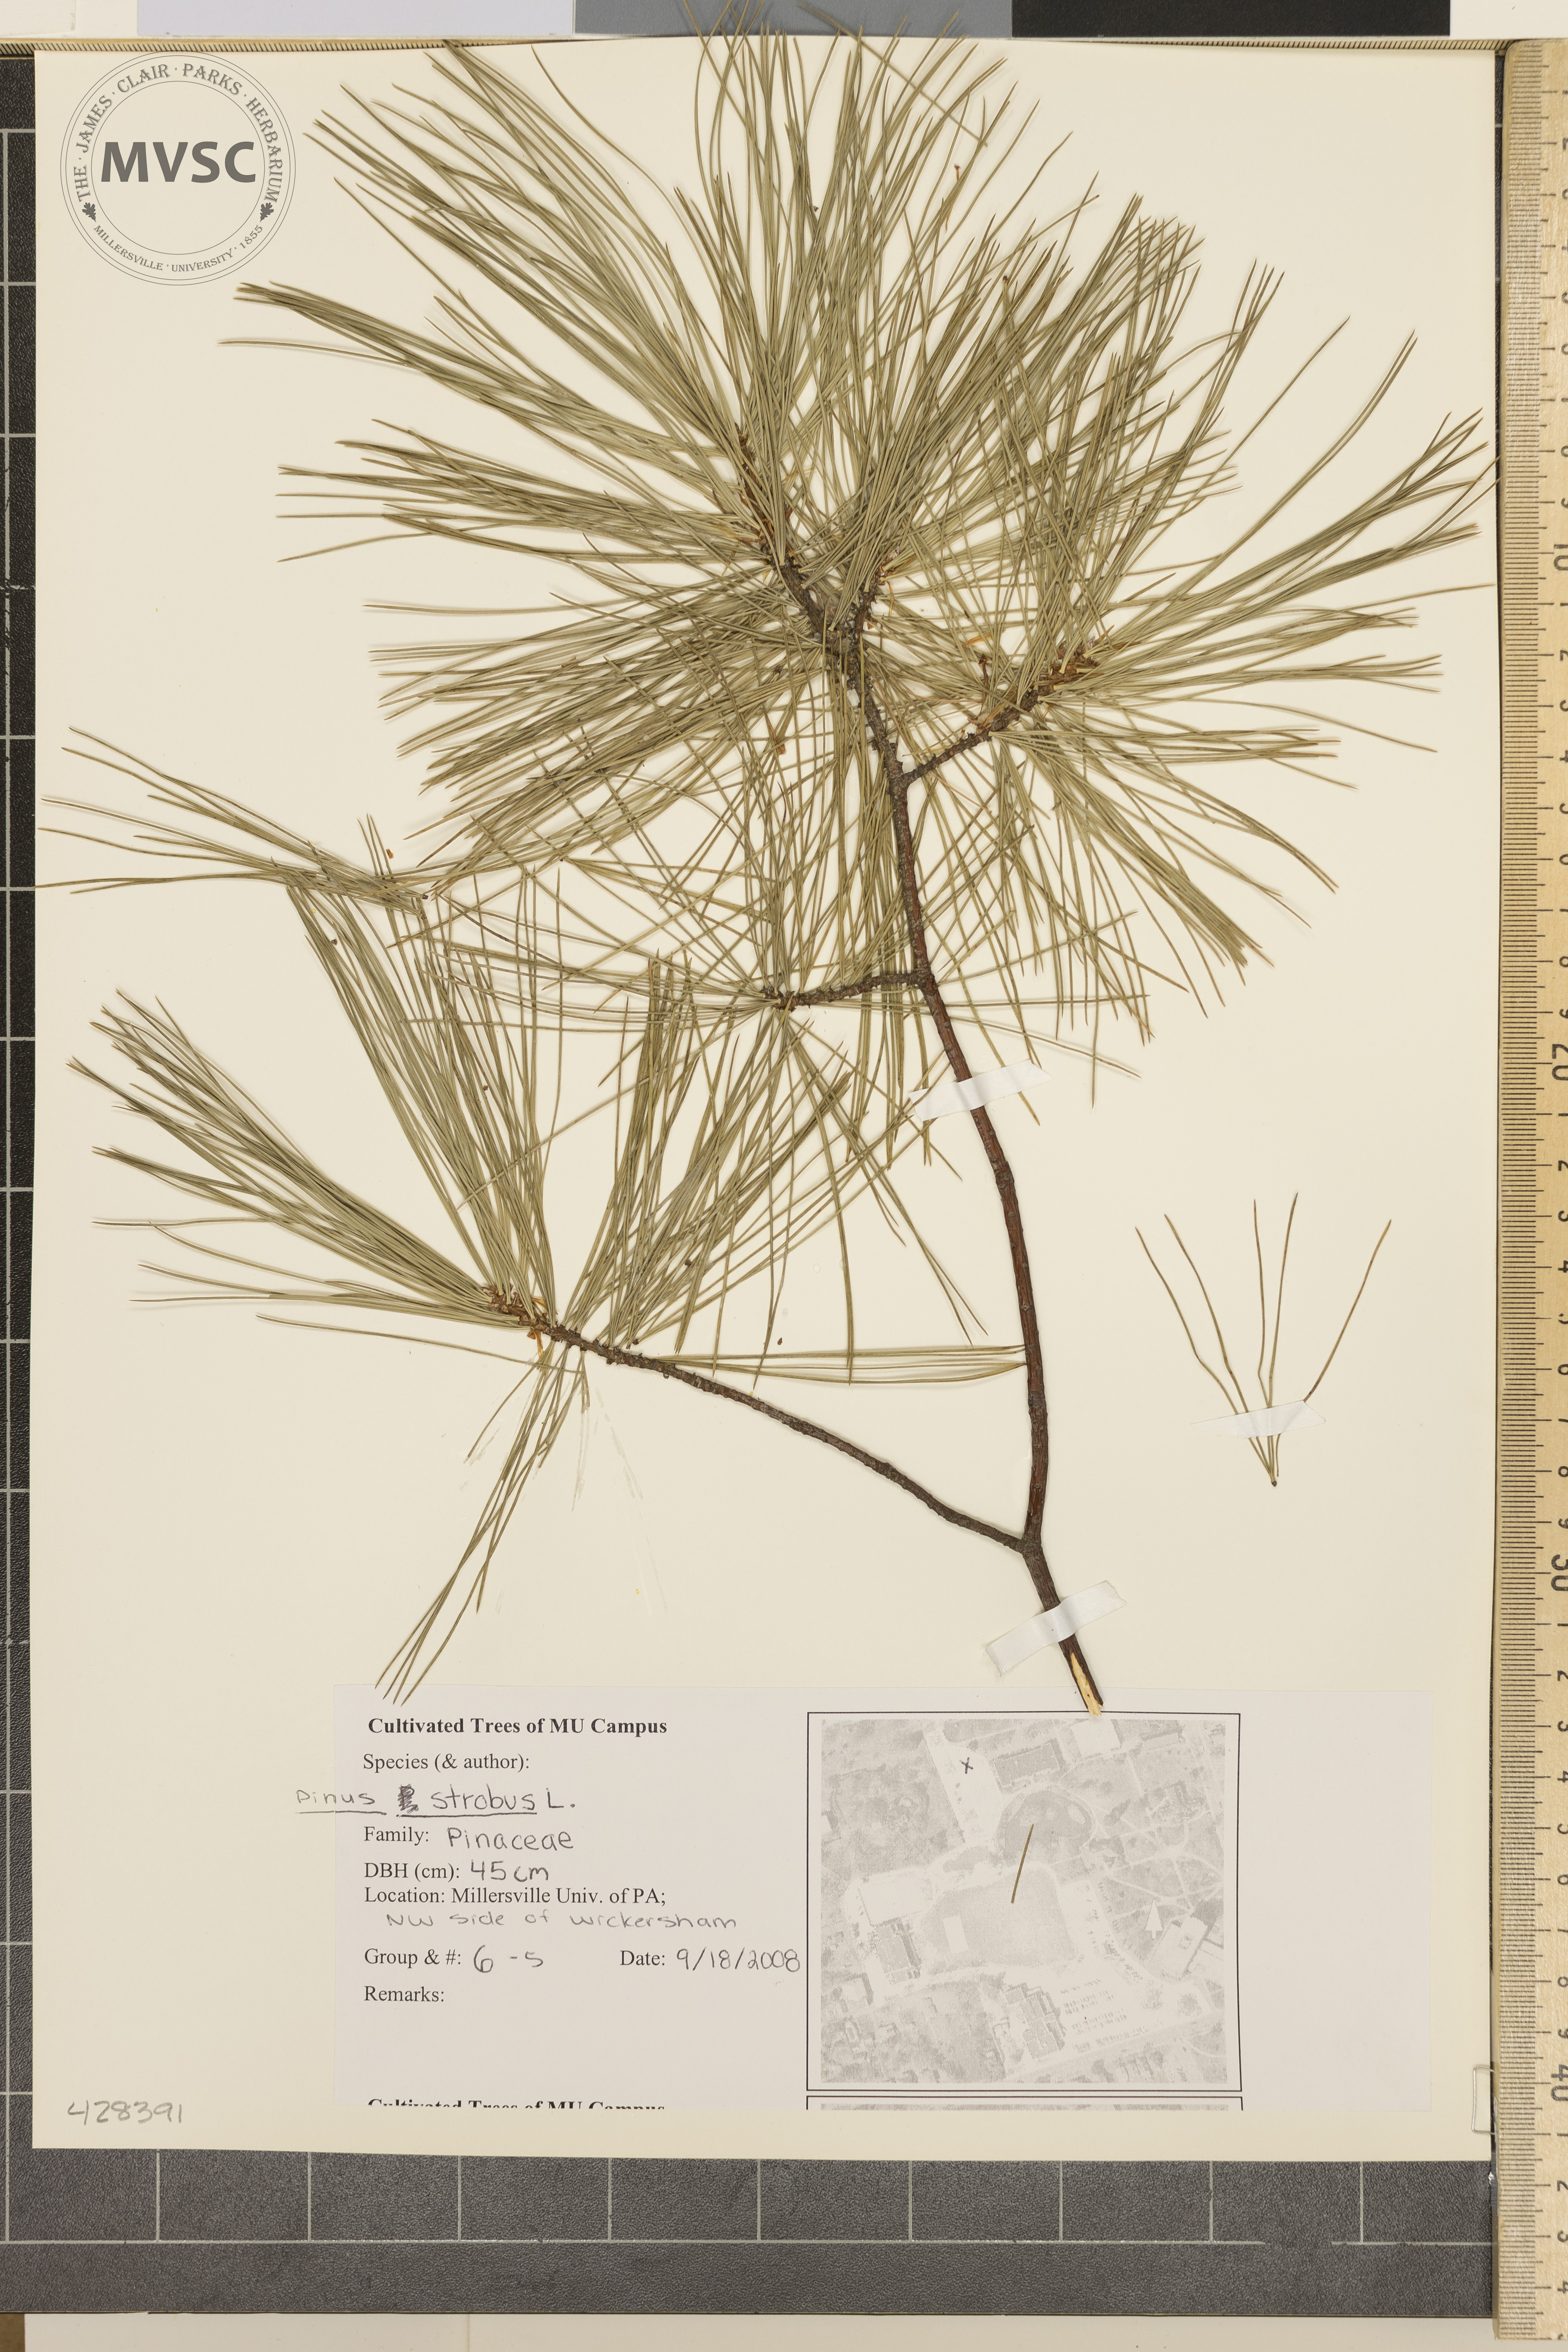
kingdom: Plantae
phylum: Tracheophyta
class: Pinopsida
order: Pinales
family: Pinaceae
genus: Pinus
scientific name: Pinus strobus
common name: White Pine
